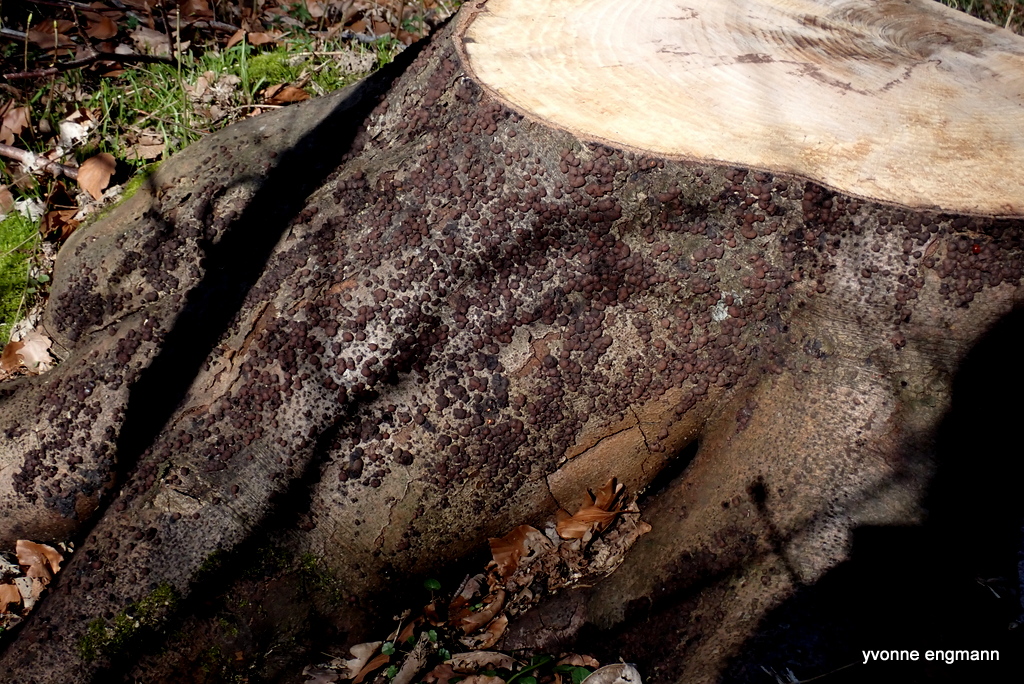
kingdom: Fungi
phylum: Ascomycota
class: Sordariomycetes
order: Xylariales
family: Hypoxylaceae
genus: Hypoxylon
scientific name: Hypoxylon fragiforme
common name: kuljordbær
